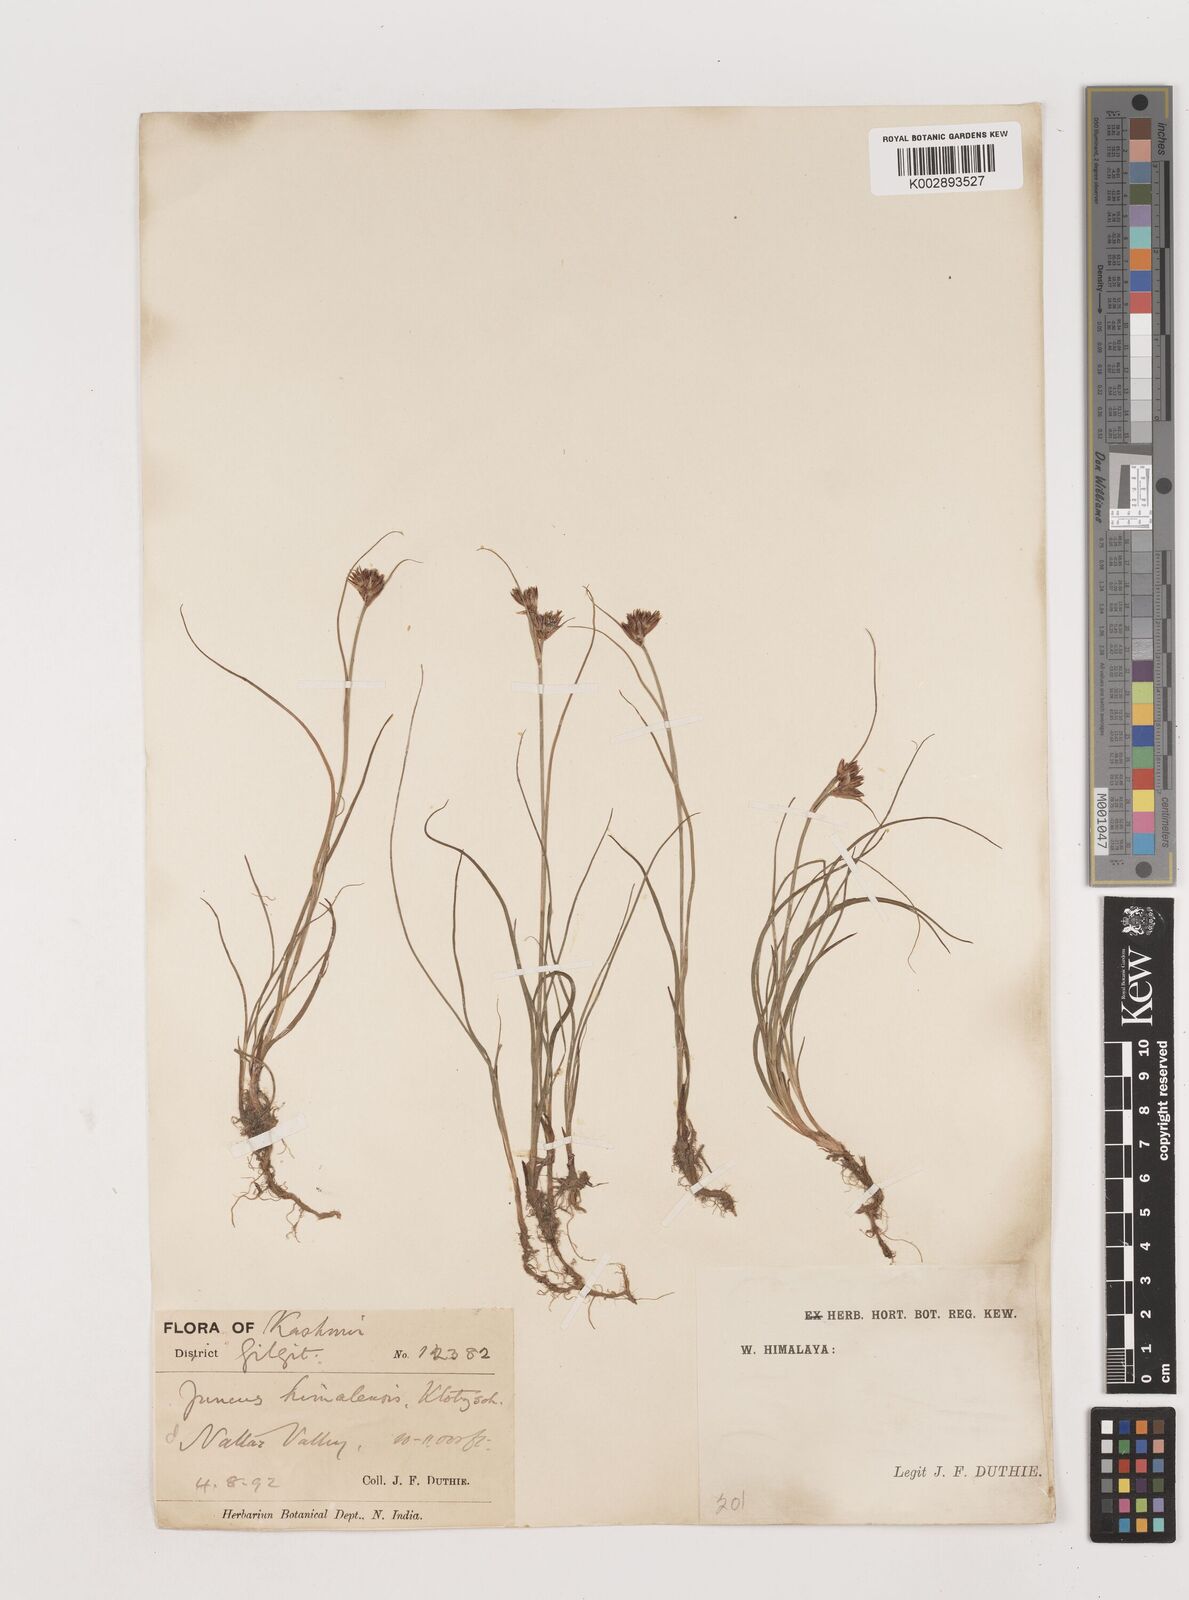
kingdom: Plantae
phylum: Tracheophyta
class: Liliopsida
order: Poales
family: Juncaceae
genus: Juncus
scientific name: Juncus himalensis
